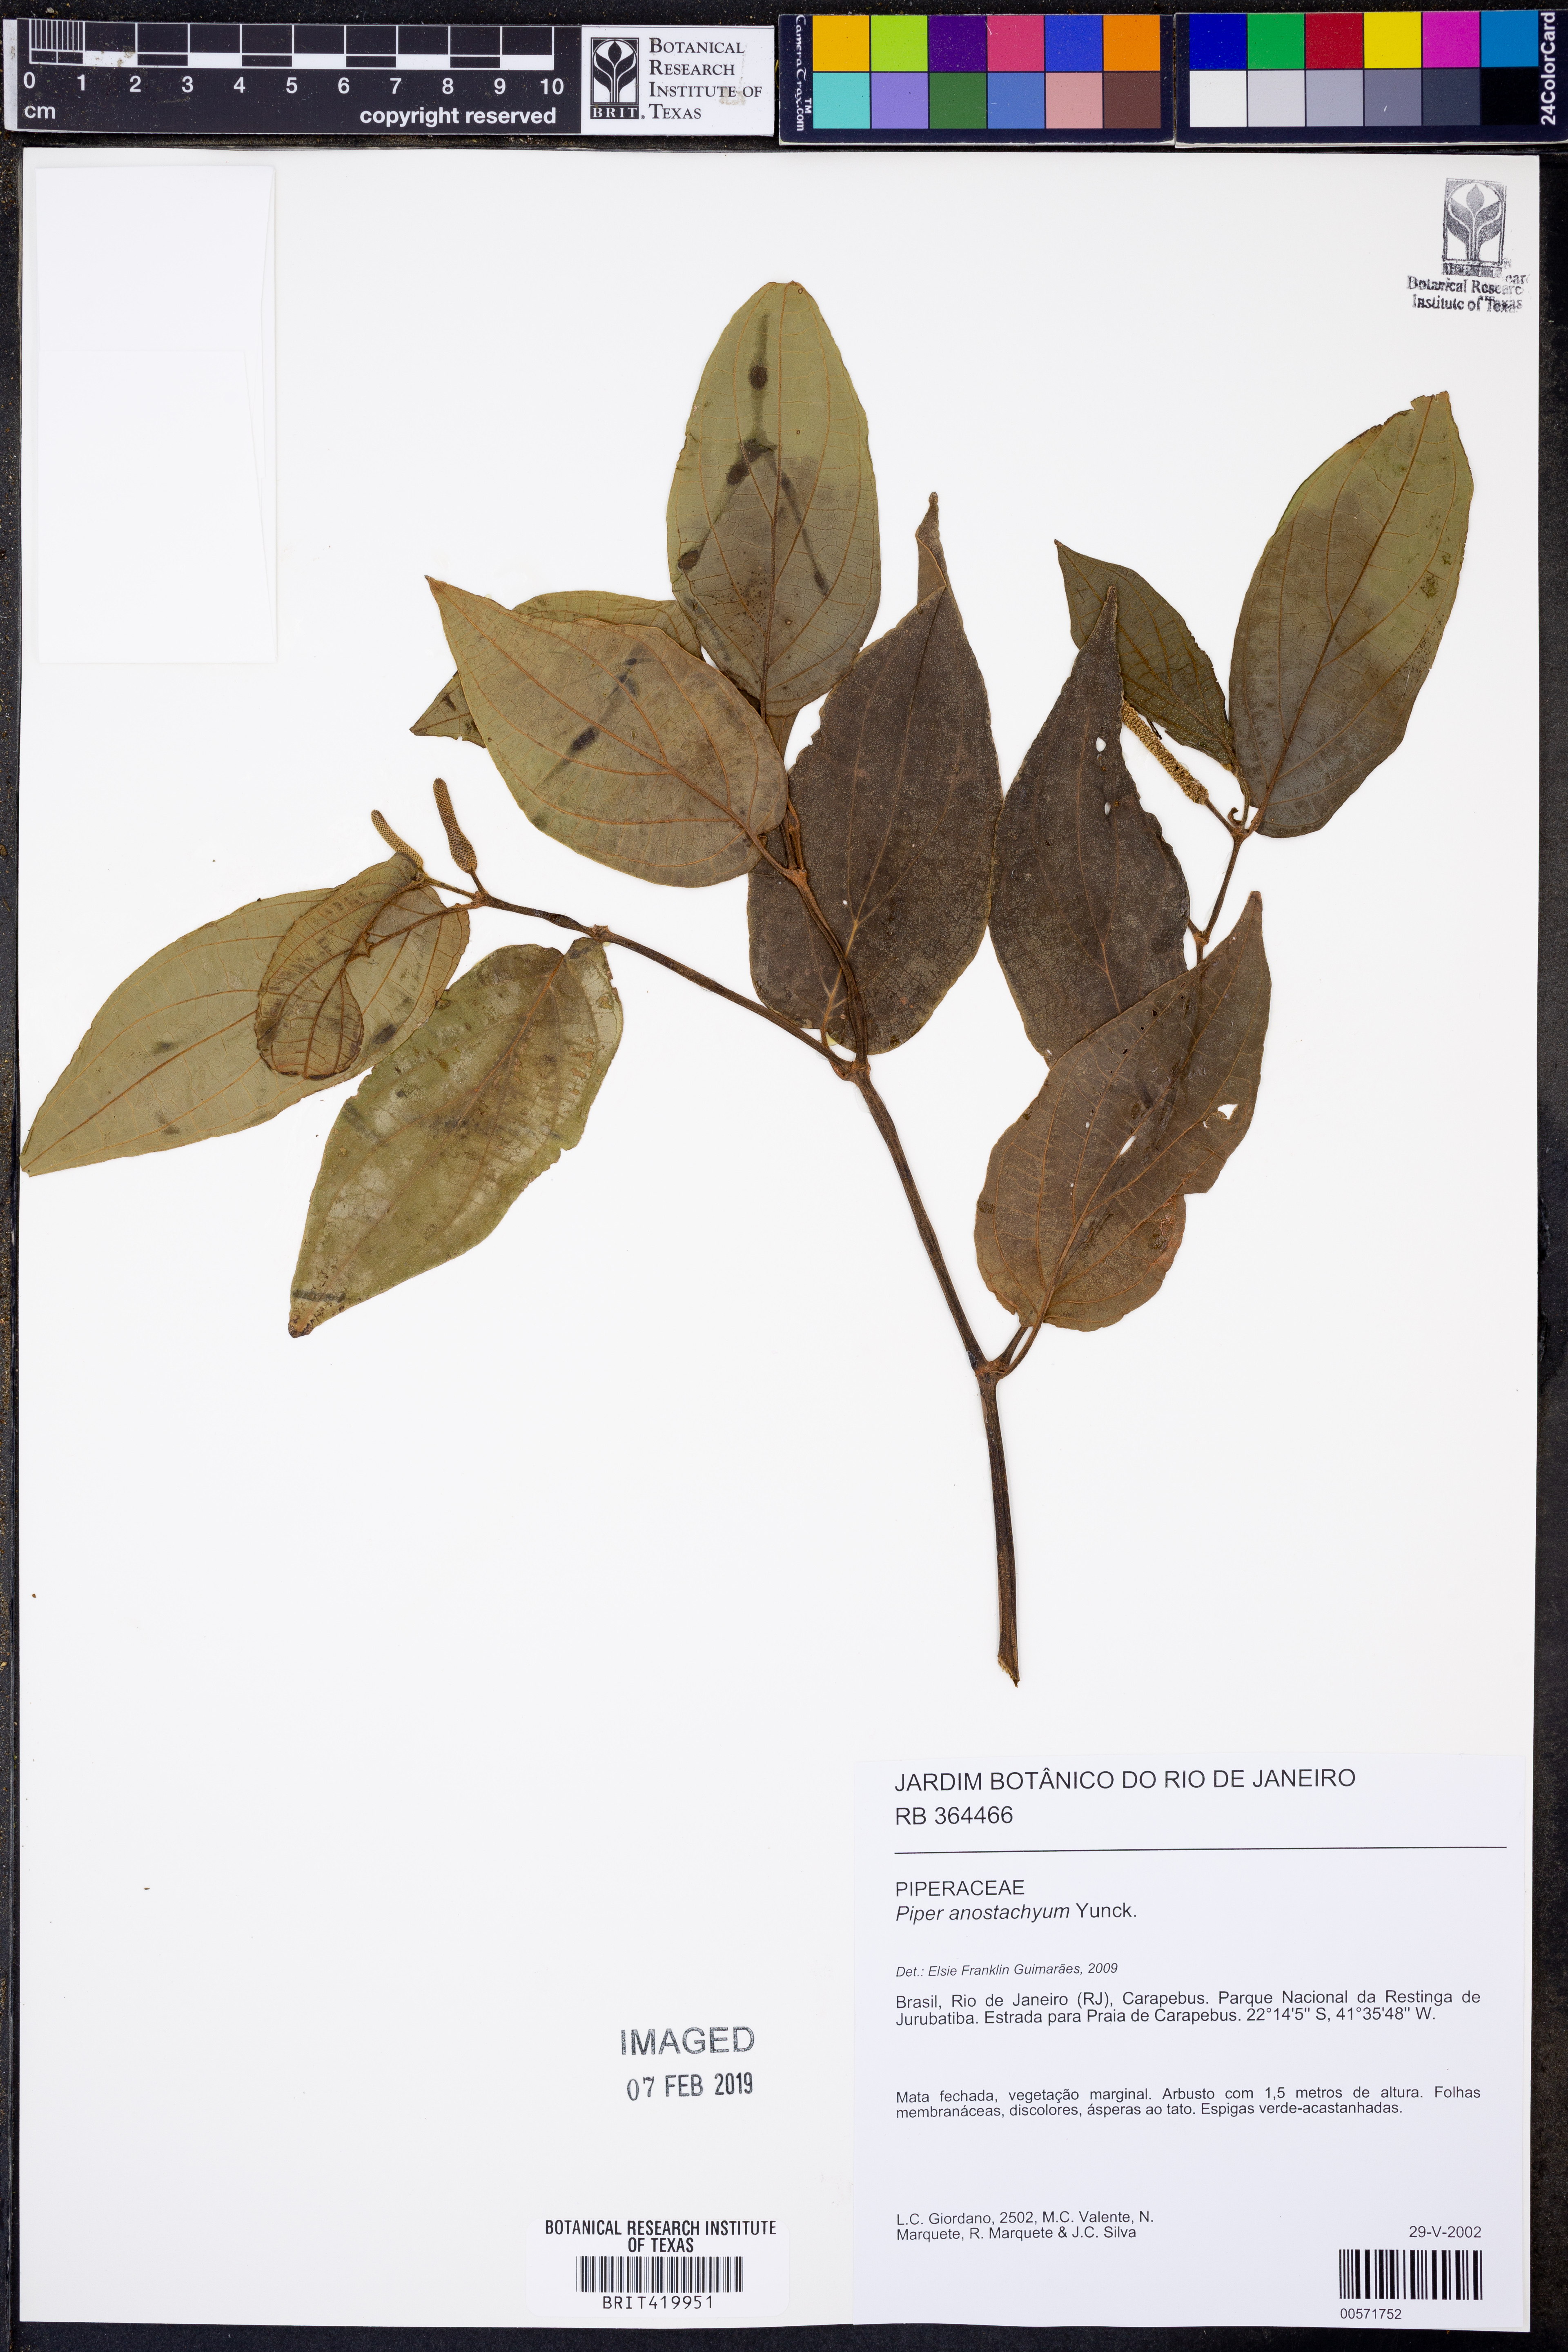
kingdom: Plantae
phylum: Tracheophyta
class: Magnoliopsida
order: Piperales
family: Piperaceae
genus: Piper
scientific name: Piper anostachyum
